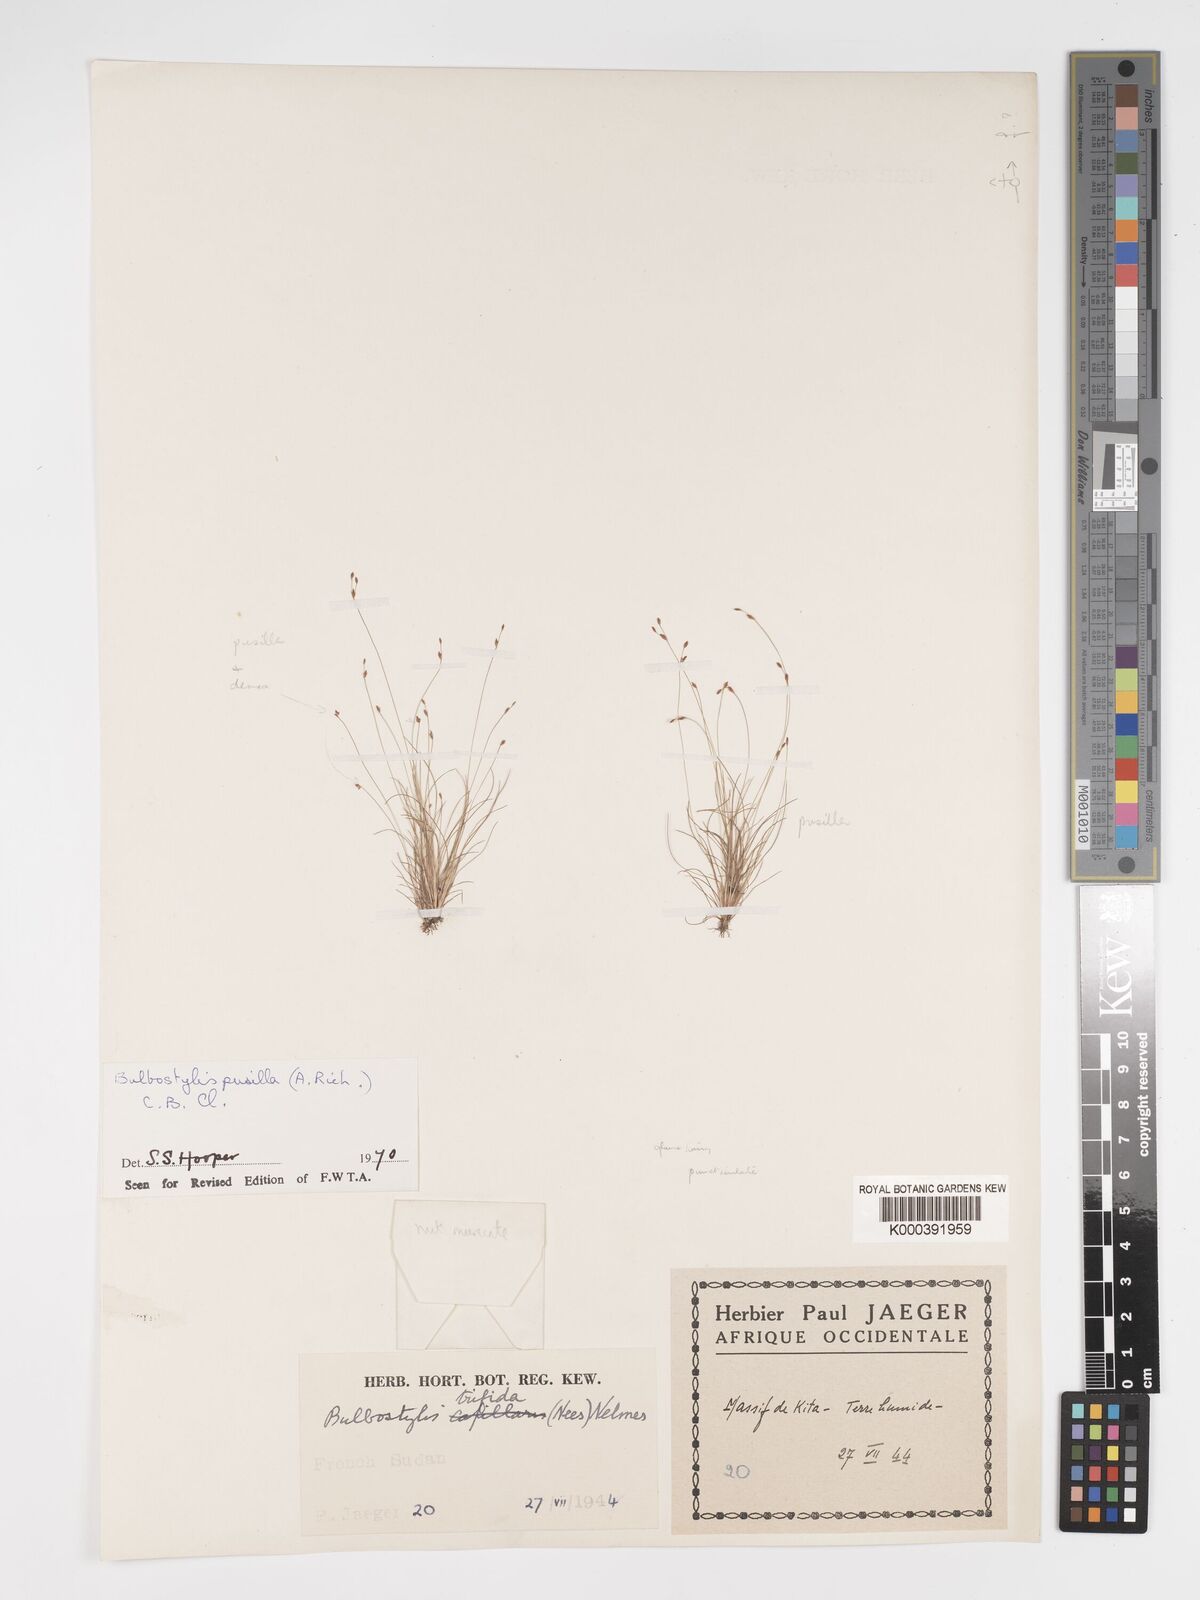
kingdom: Plantae
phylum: Tracheophyta
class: Liliopsida
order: Poales
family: Cyperaceae
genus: Bulbostylis
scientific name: Bulbostylis pusilla
